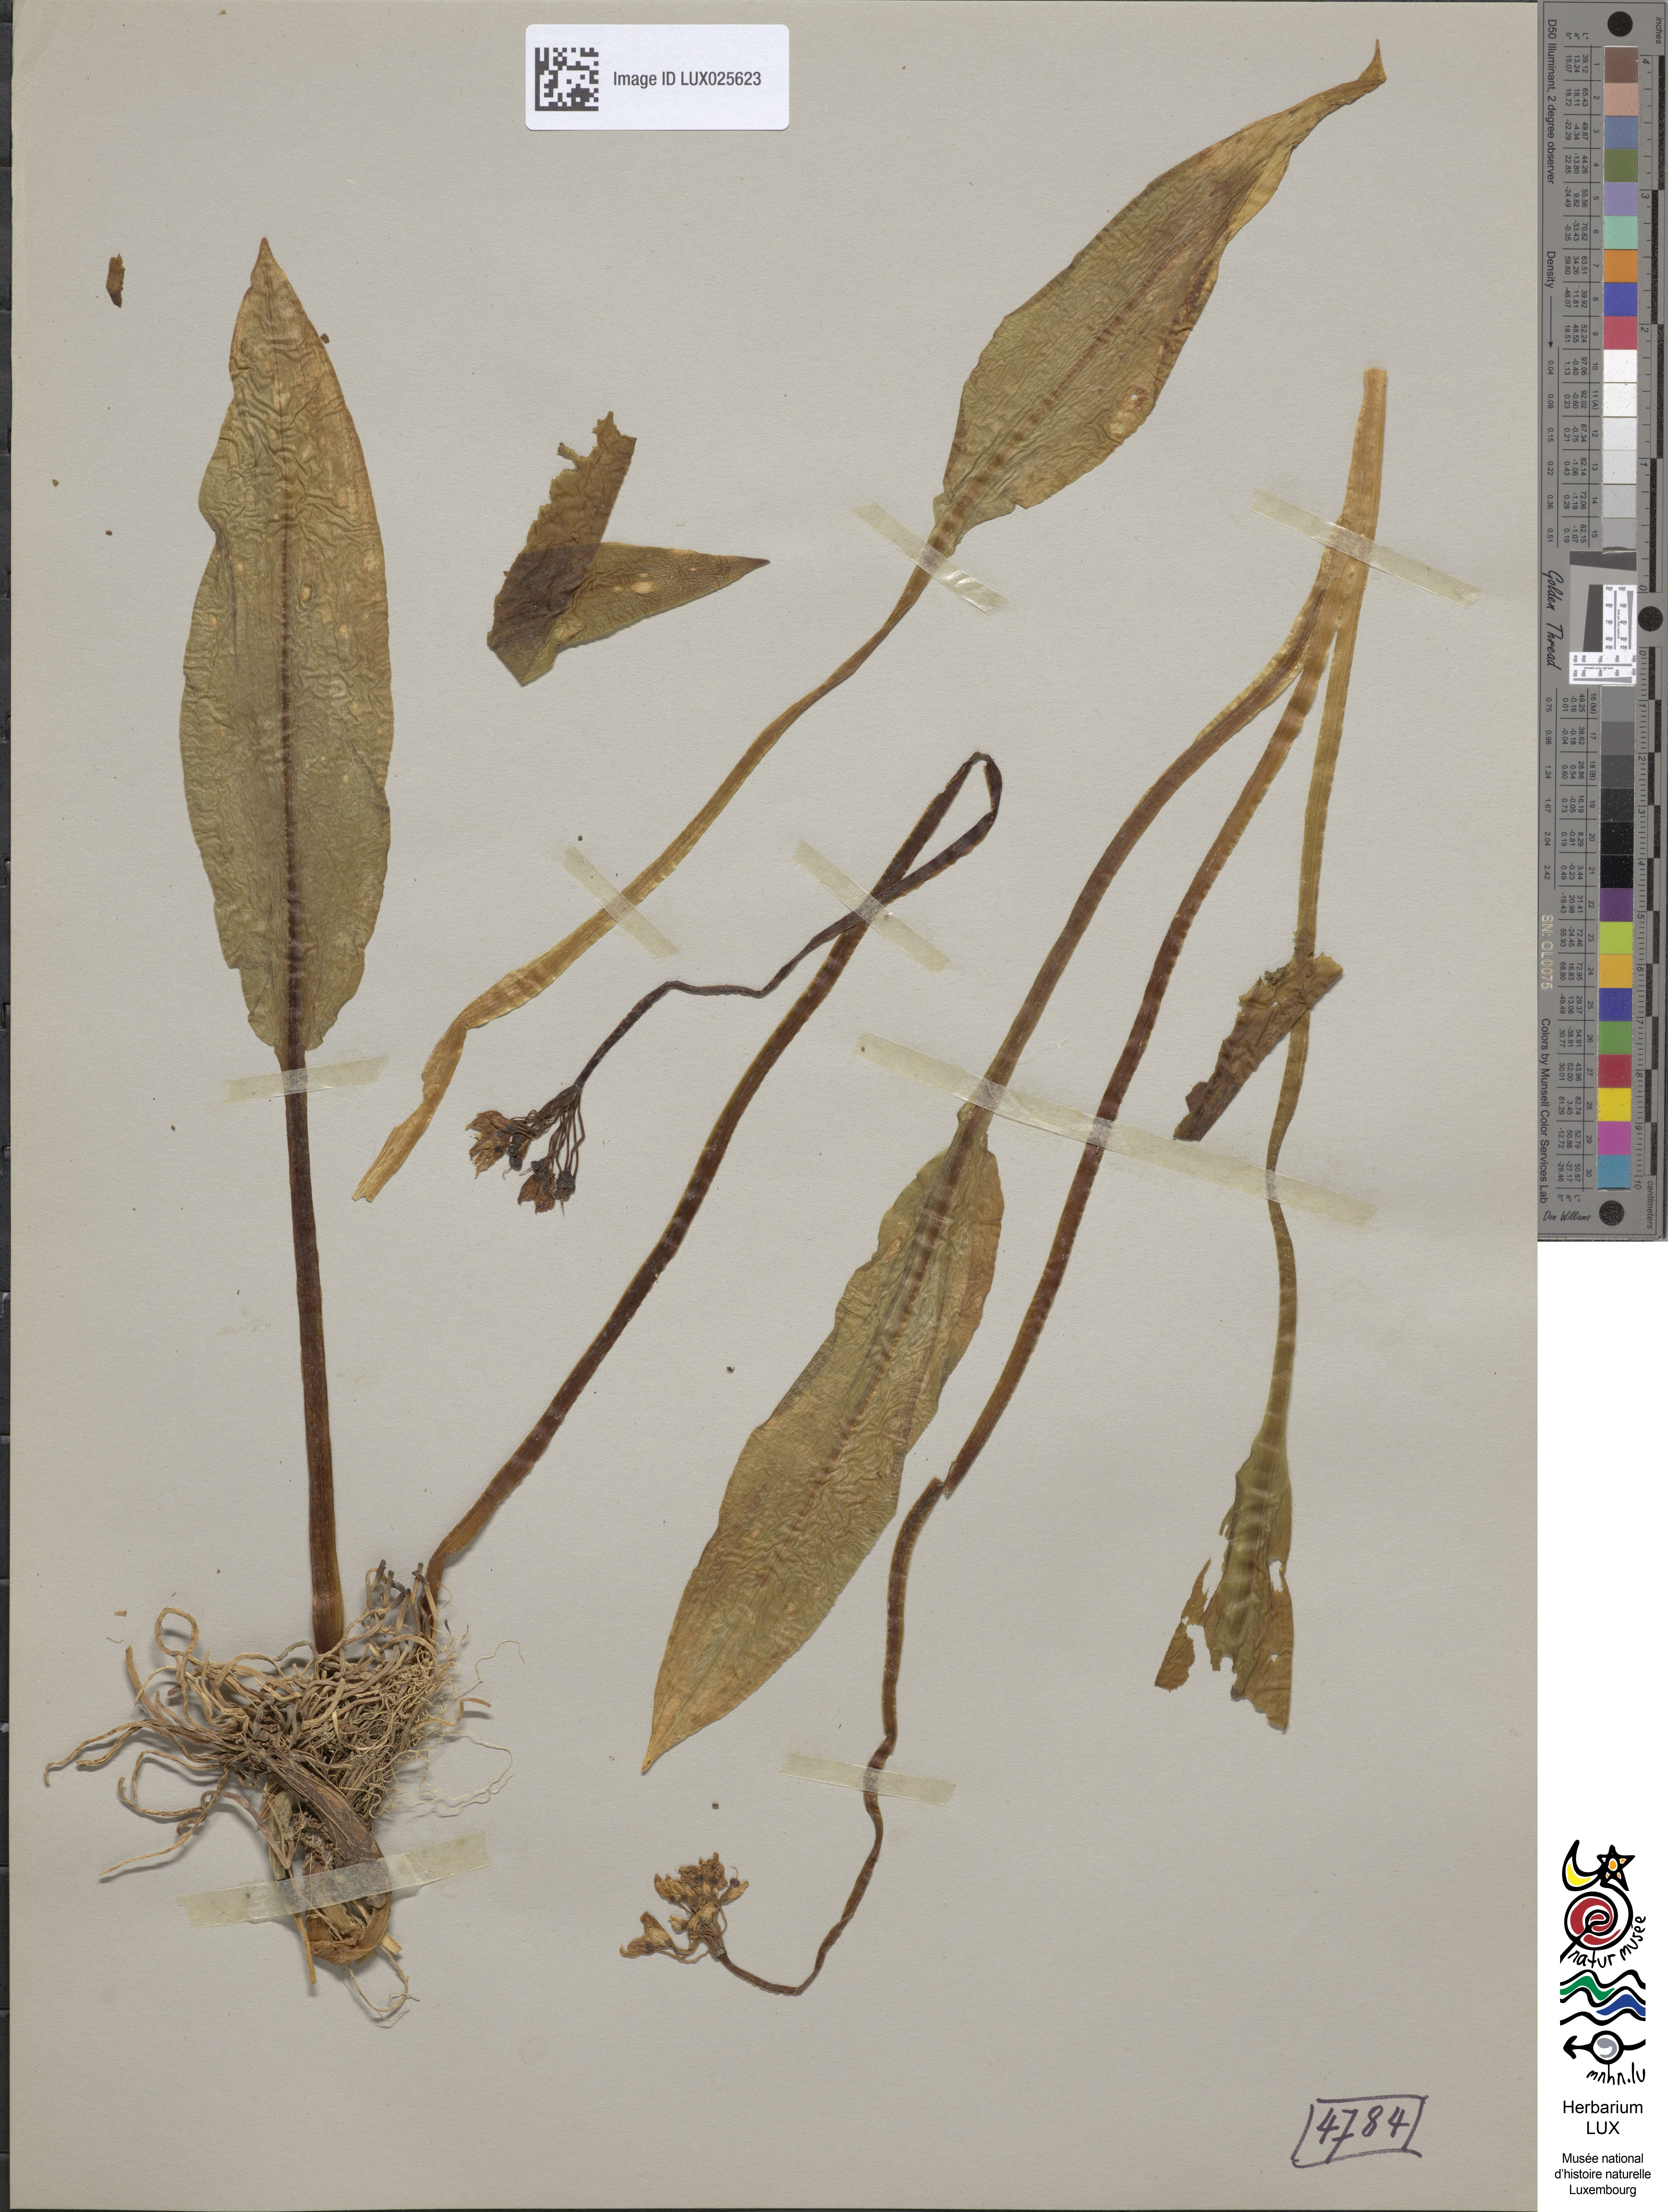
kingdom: Plantae
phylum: Tracheophyta
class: Liliopsida
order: Asparagales
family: Amaryllidaceae
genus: Allium
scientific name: Allium ursinum
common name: Ramsons
